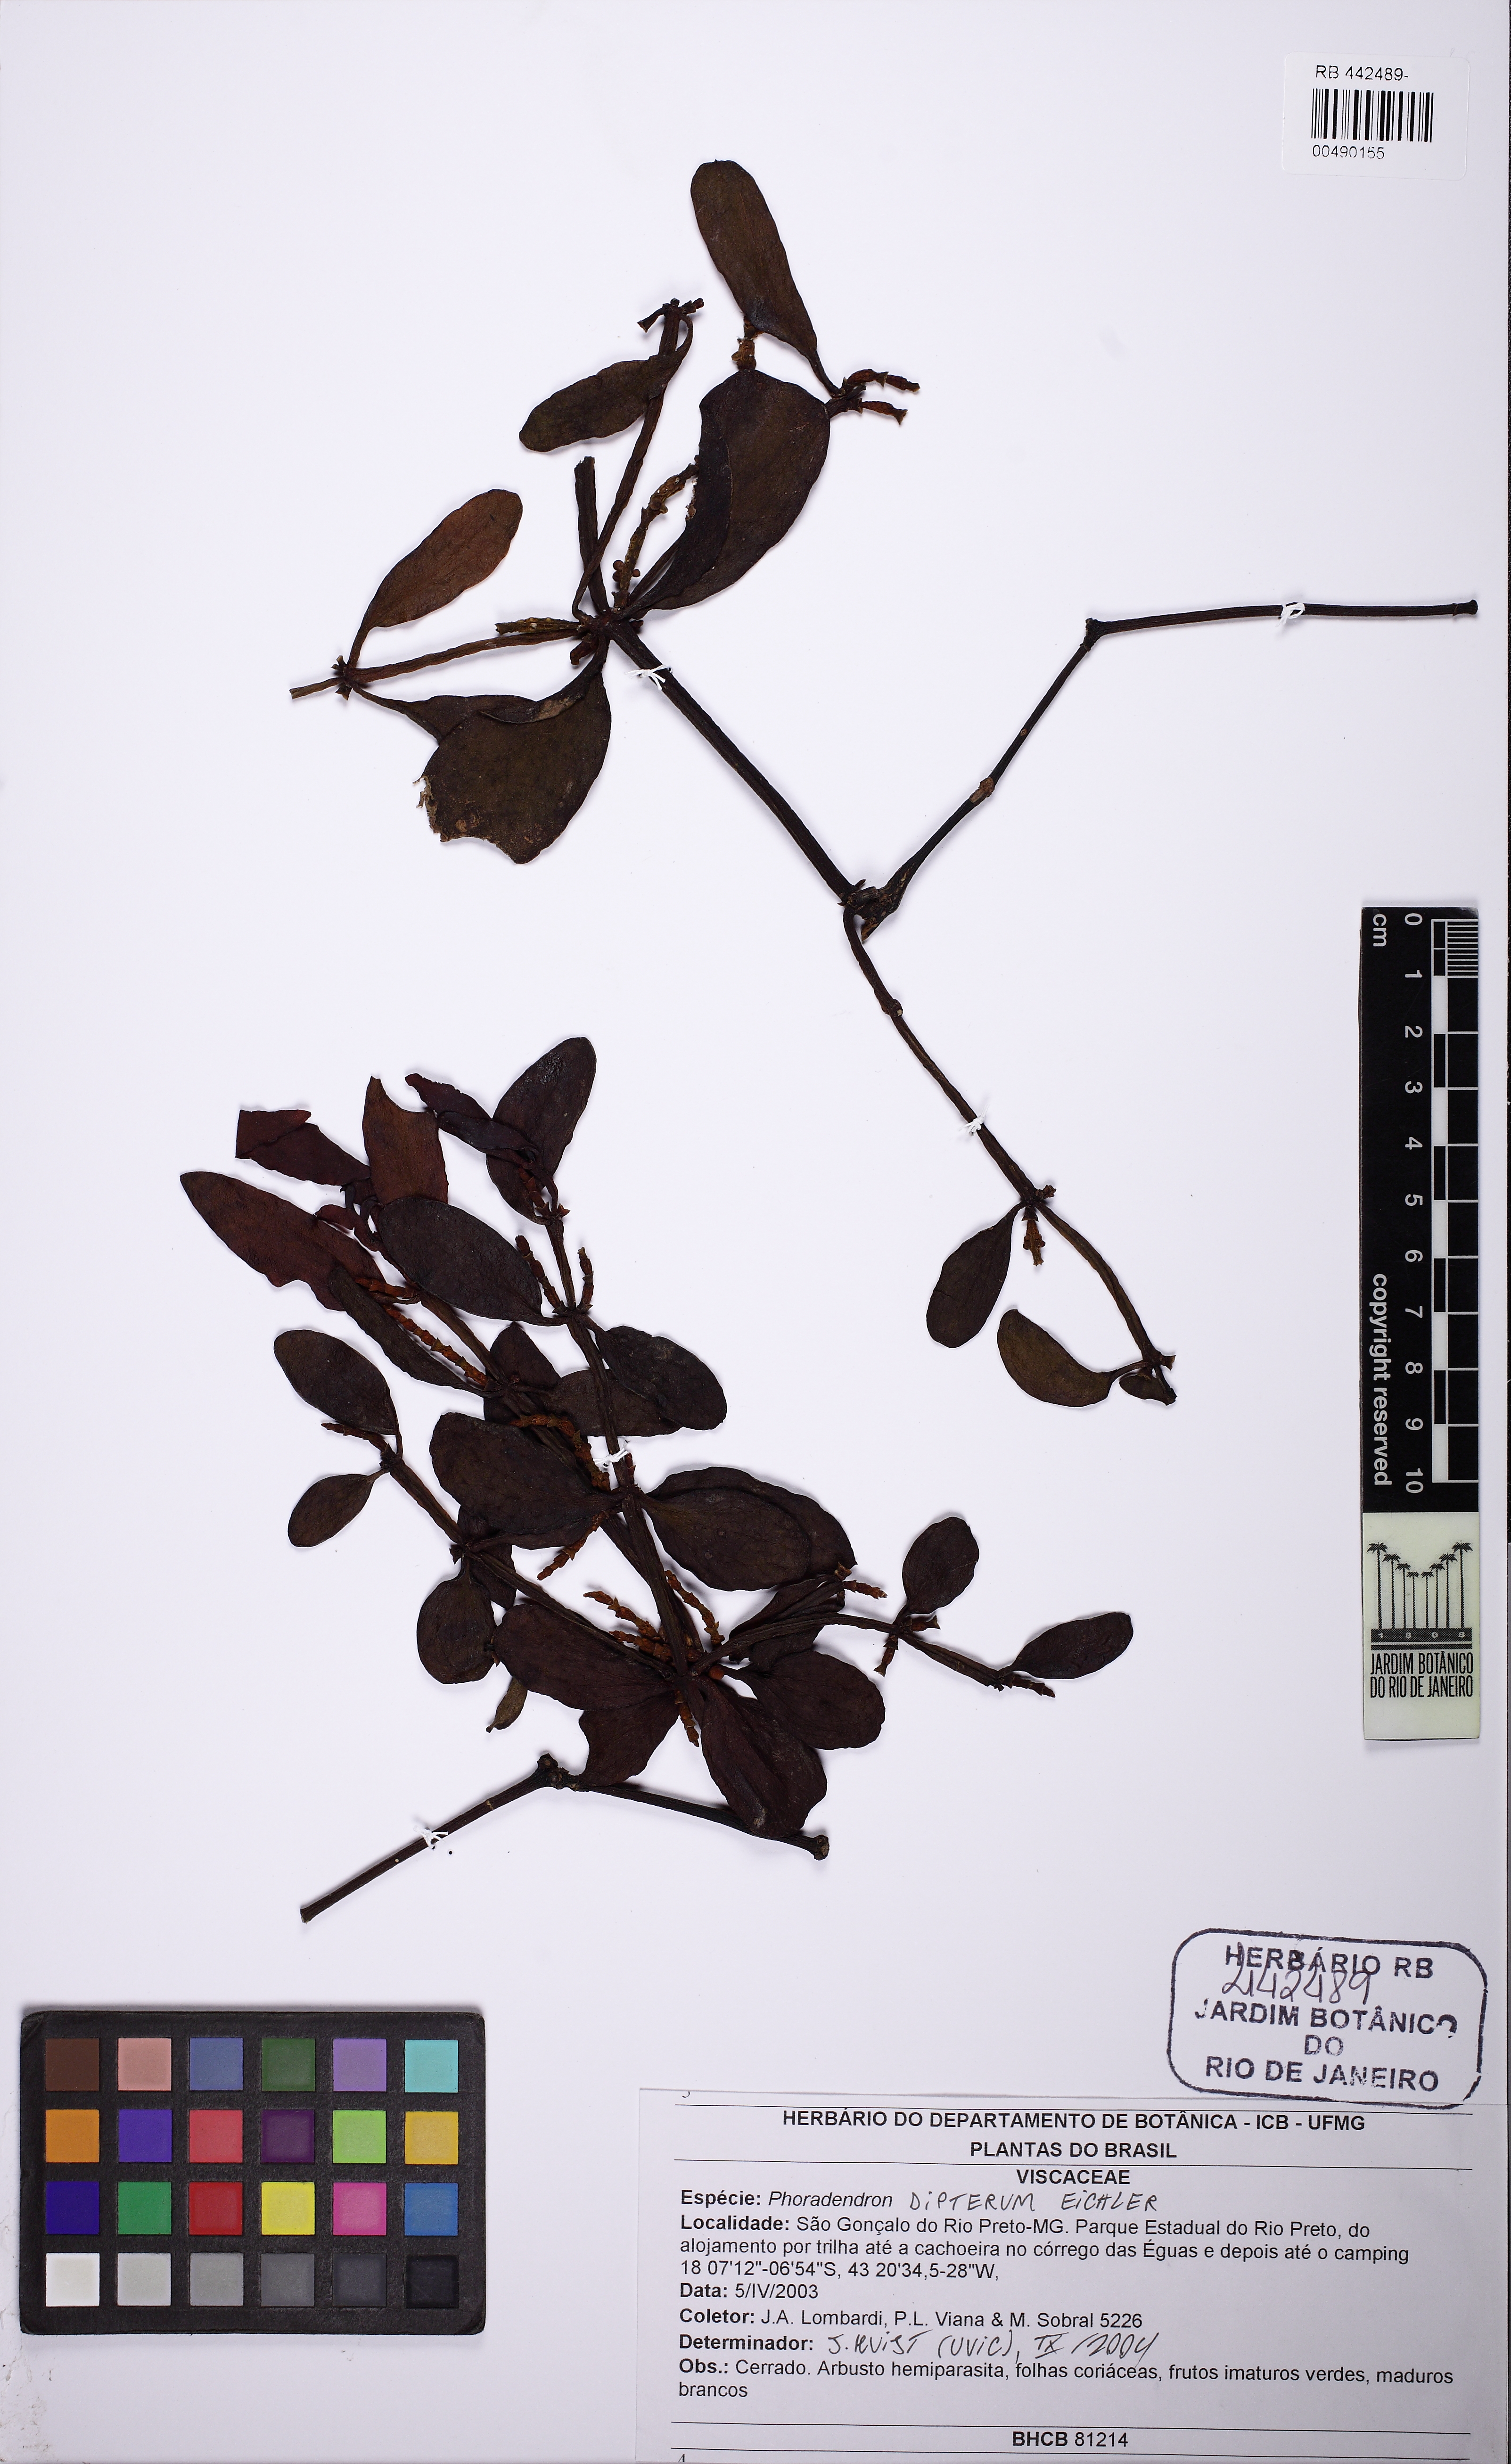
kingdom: Plantae
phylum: Tracheophyta
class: Magnoliopsida
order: Santalales
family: Viscaceae
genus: Phoradendron
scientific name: Phoradendron dipterum
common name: Fourpart mistletoe
